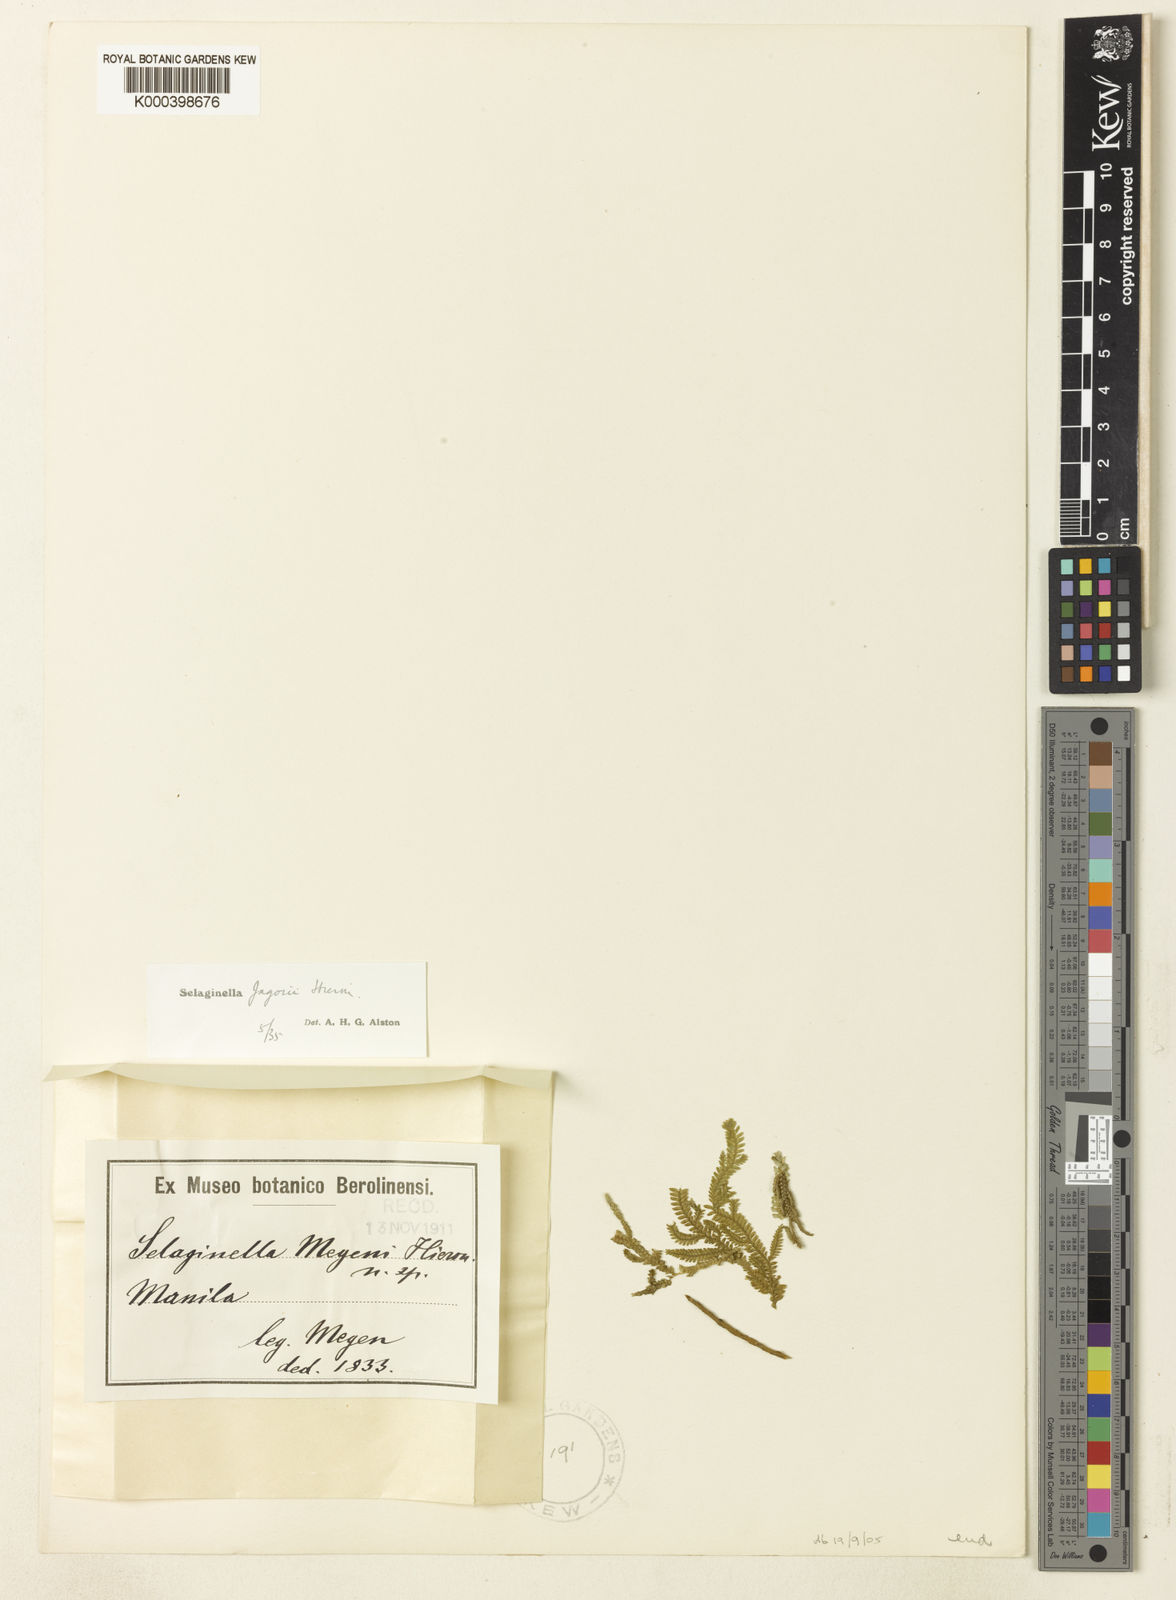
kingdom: Plantae
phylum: Tracheophyta
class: Lycopodiopsida
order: Selaginellales
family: Selaginellaceae
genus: Selaginella
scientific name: Selaginella jagorii
